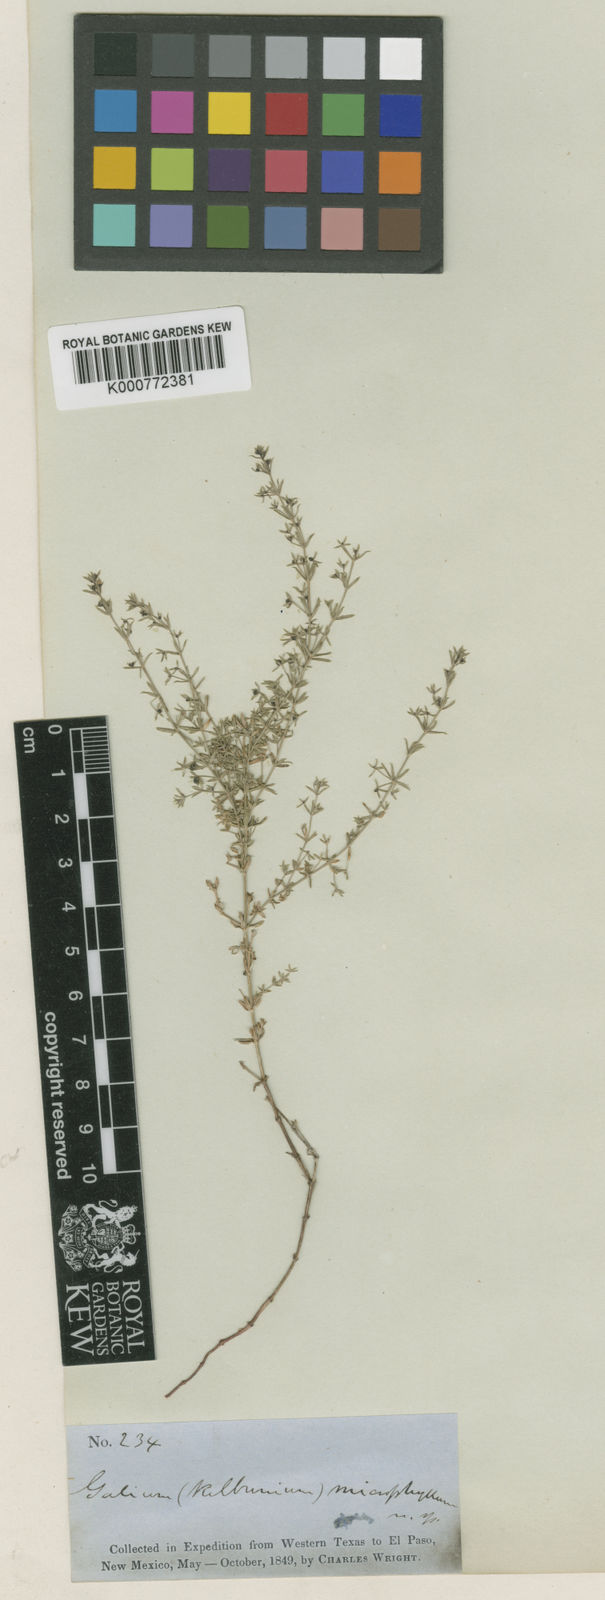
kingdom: Plantae
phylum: Tracheophyta
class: Magnoliopsida
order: Gentianales
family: Rubiaceae
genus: Galium
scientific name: Galium microphyllum
